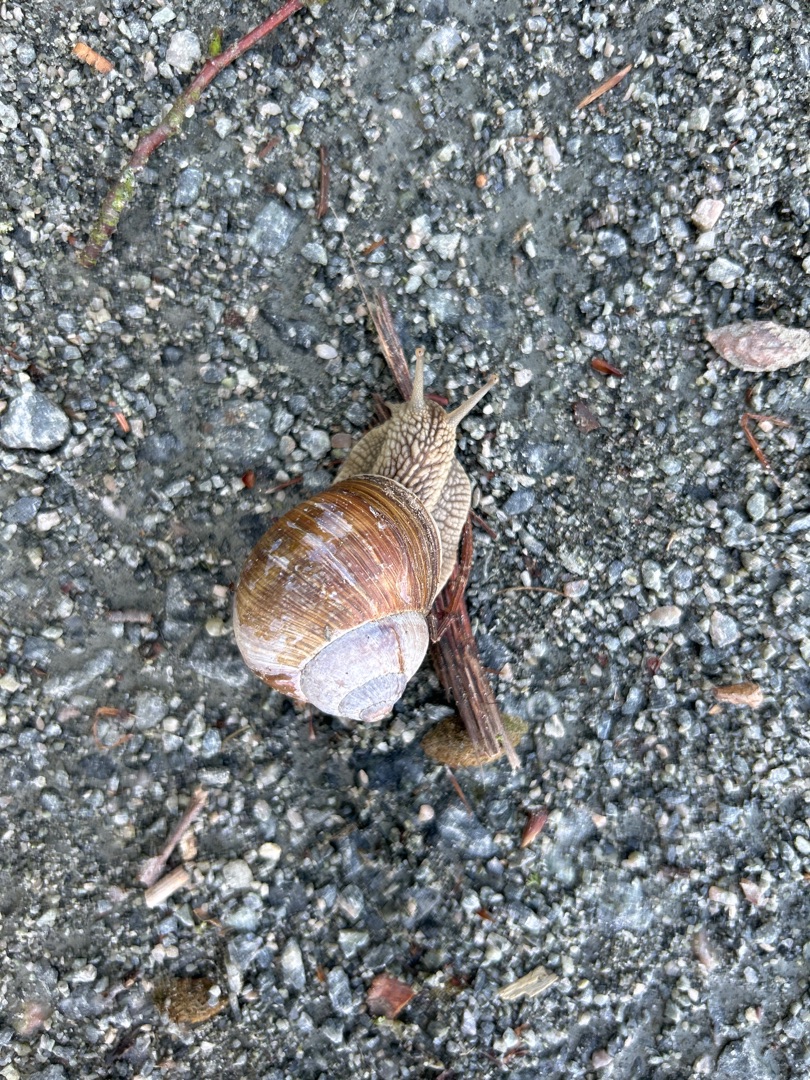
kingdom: Animalia
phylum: Mollusca
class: Gastropoda
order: Stylommatophora
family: Helicidae
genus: Helix
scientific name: Helix pomatia
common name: Vinbjergsnegl
